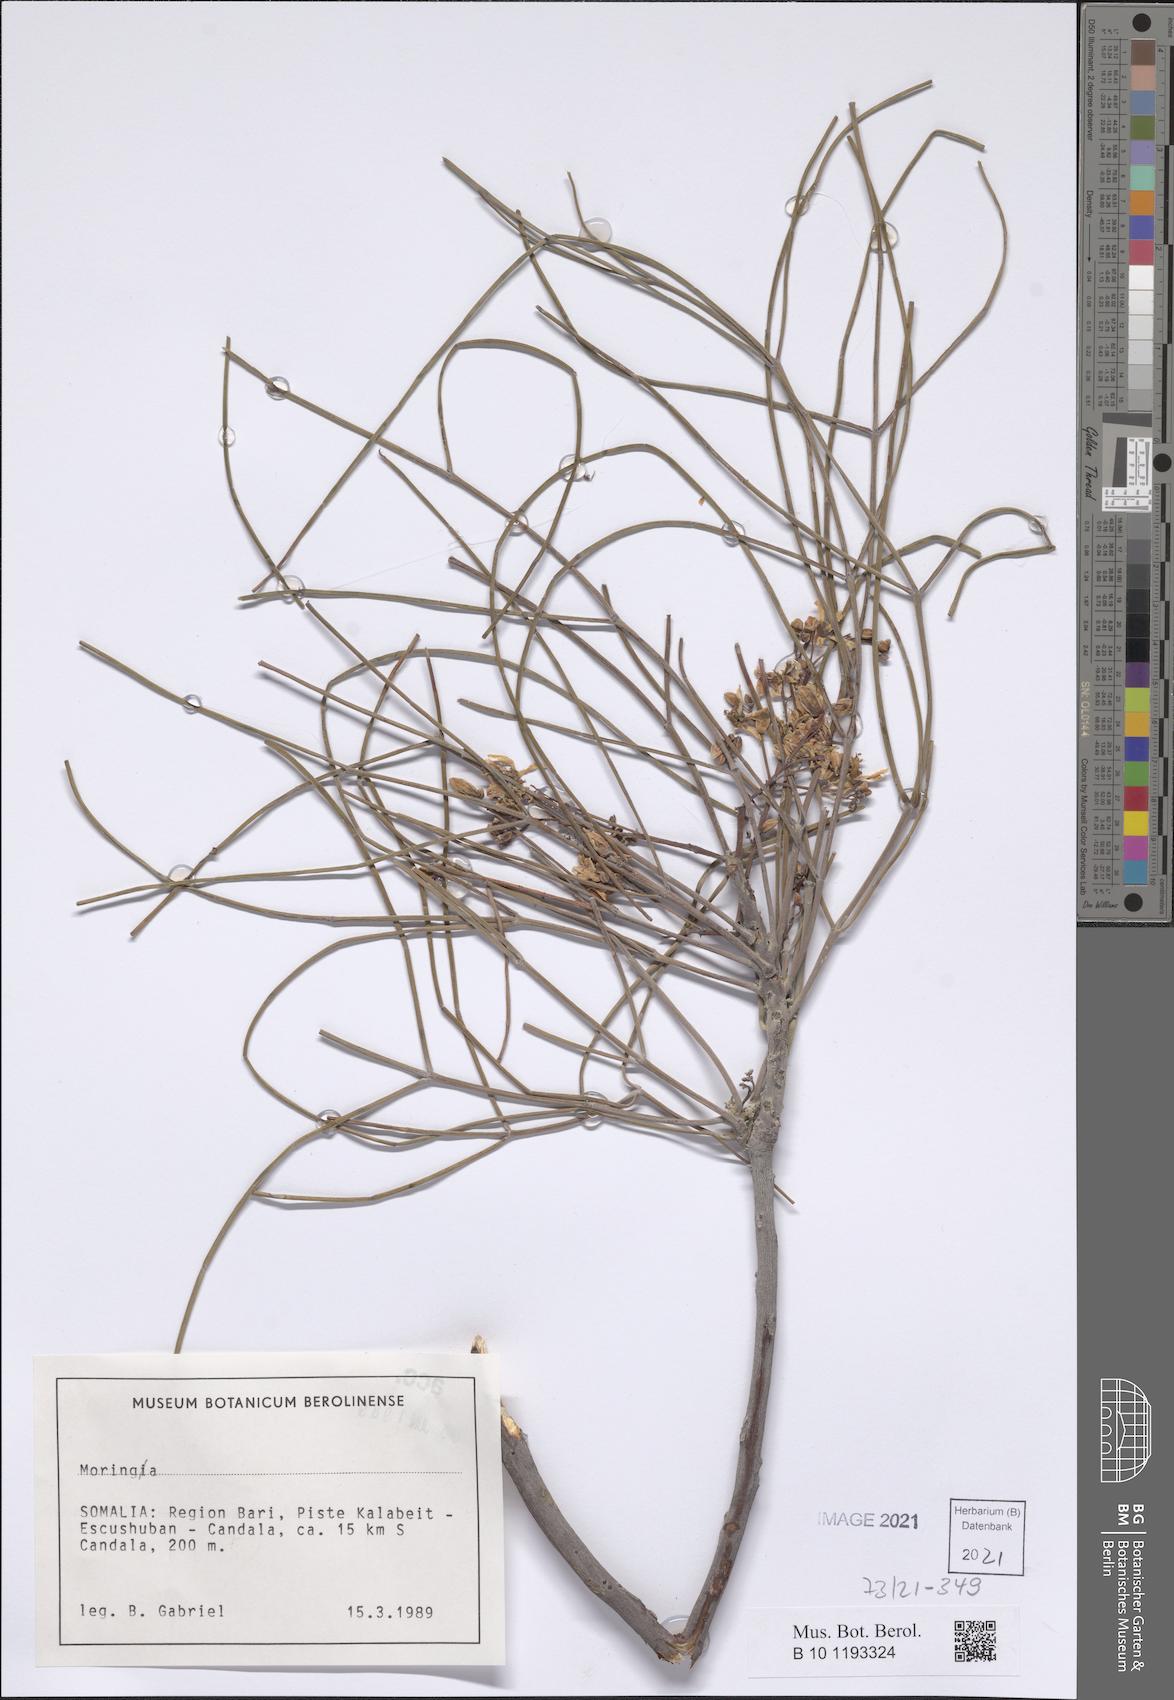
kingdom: Plantae
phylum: Tracheophyta
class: Magnoliopsida
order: Brassicales
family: Moringaceae
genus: Moringa
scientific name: Moringa
